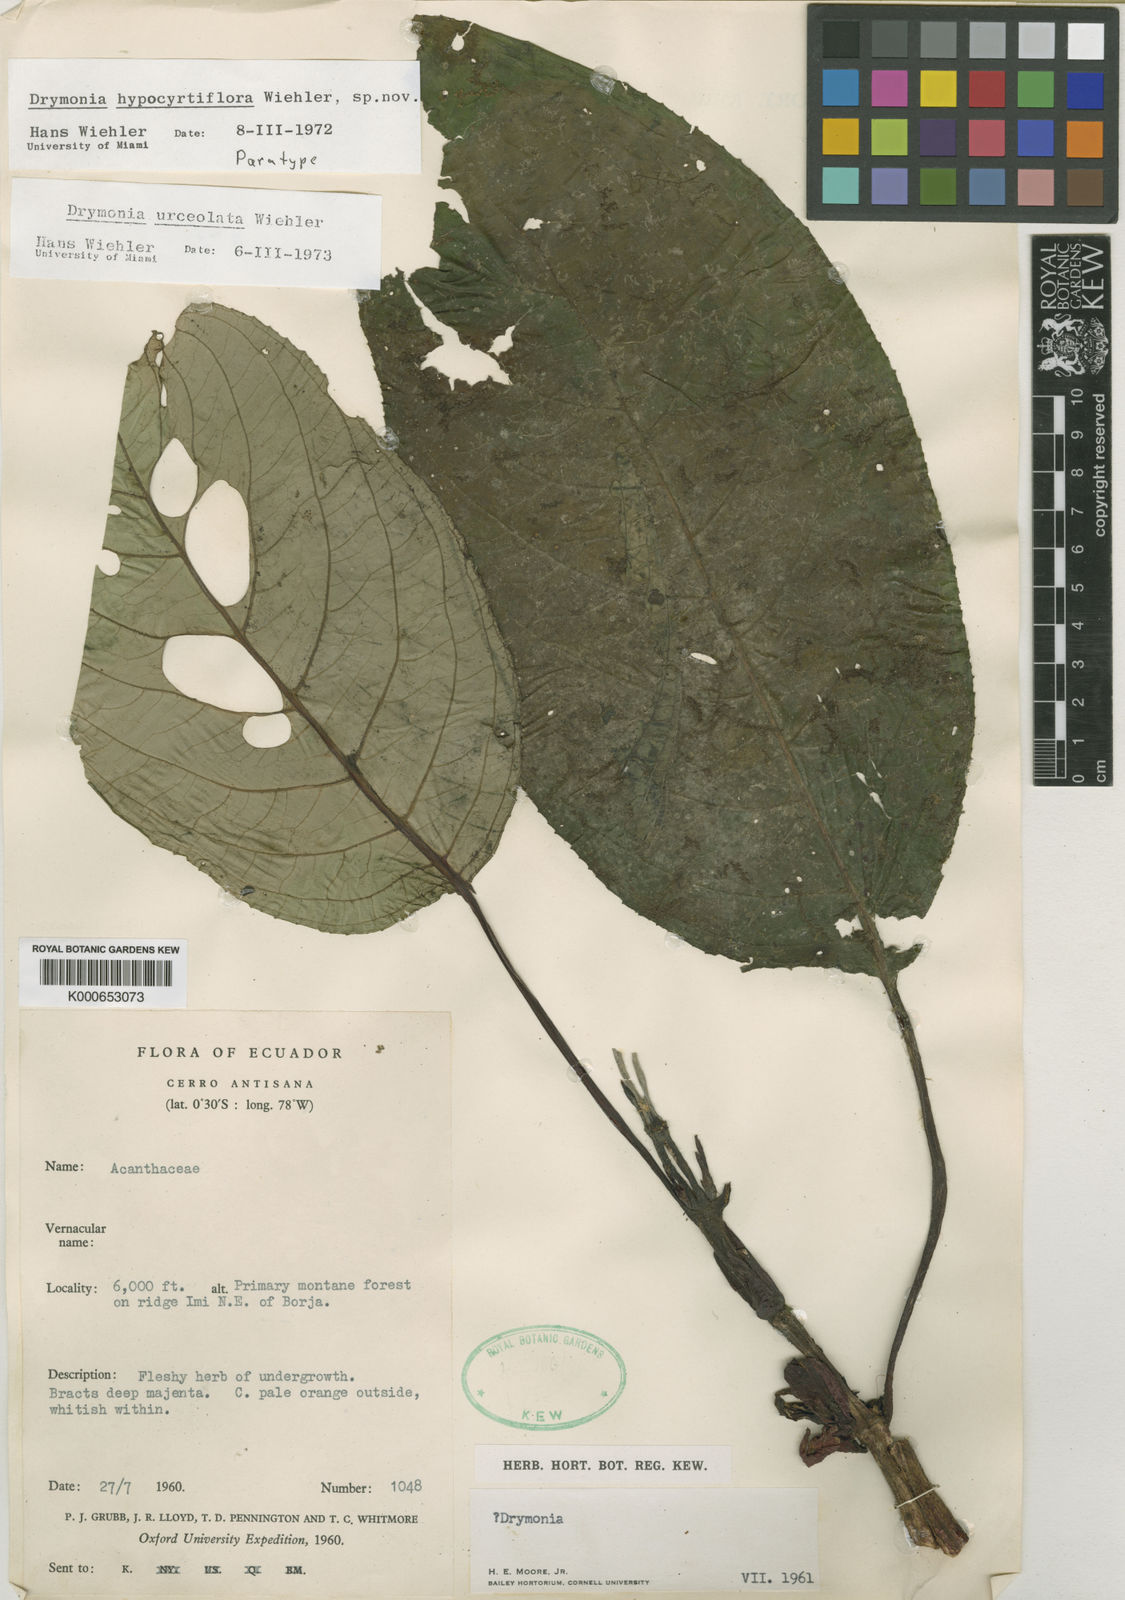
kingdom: Plantae
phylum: Tracheophyta
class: Magnoliopsida
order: Lamiales
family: Gesneriaceae
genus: Drymonia
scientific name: Drymonia urceolata
